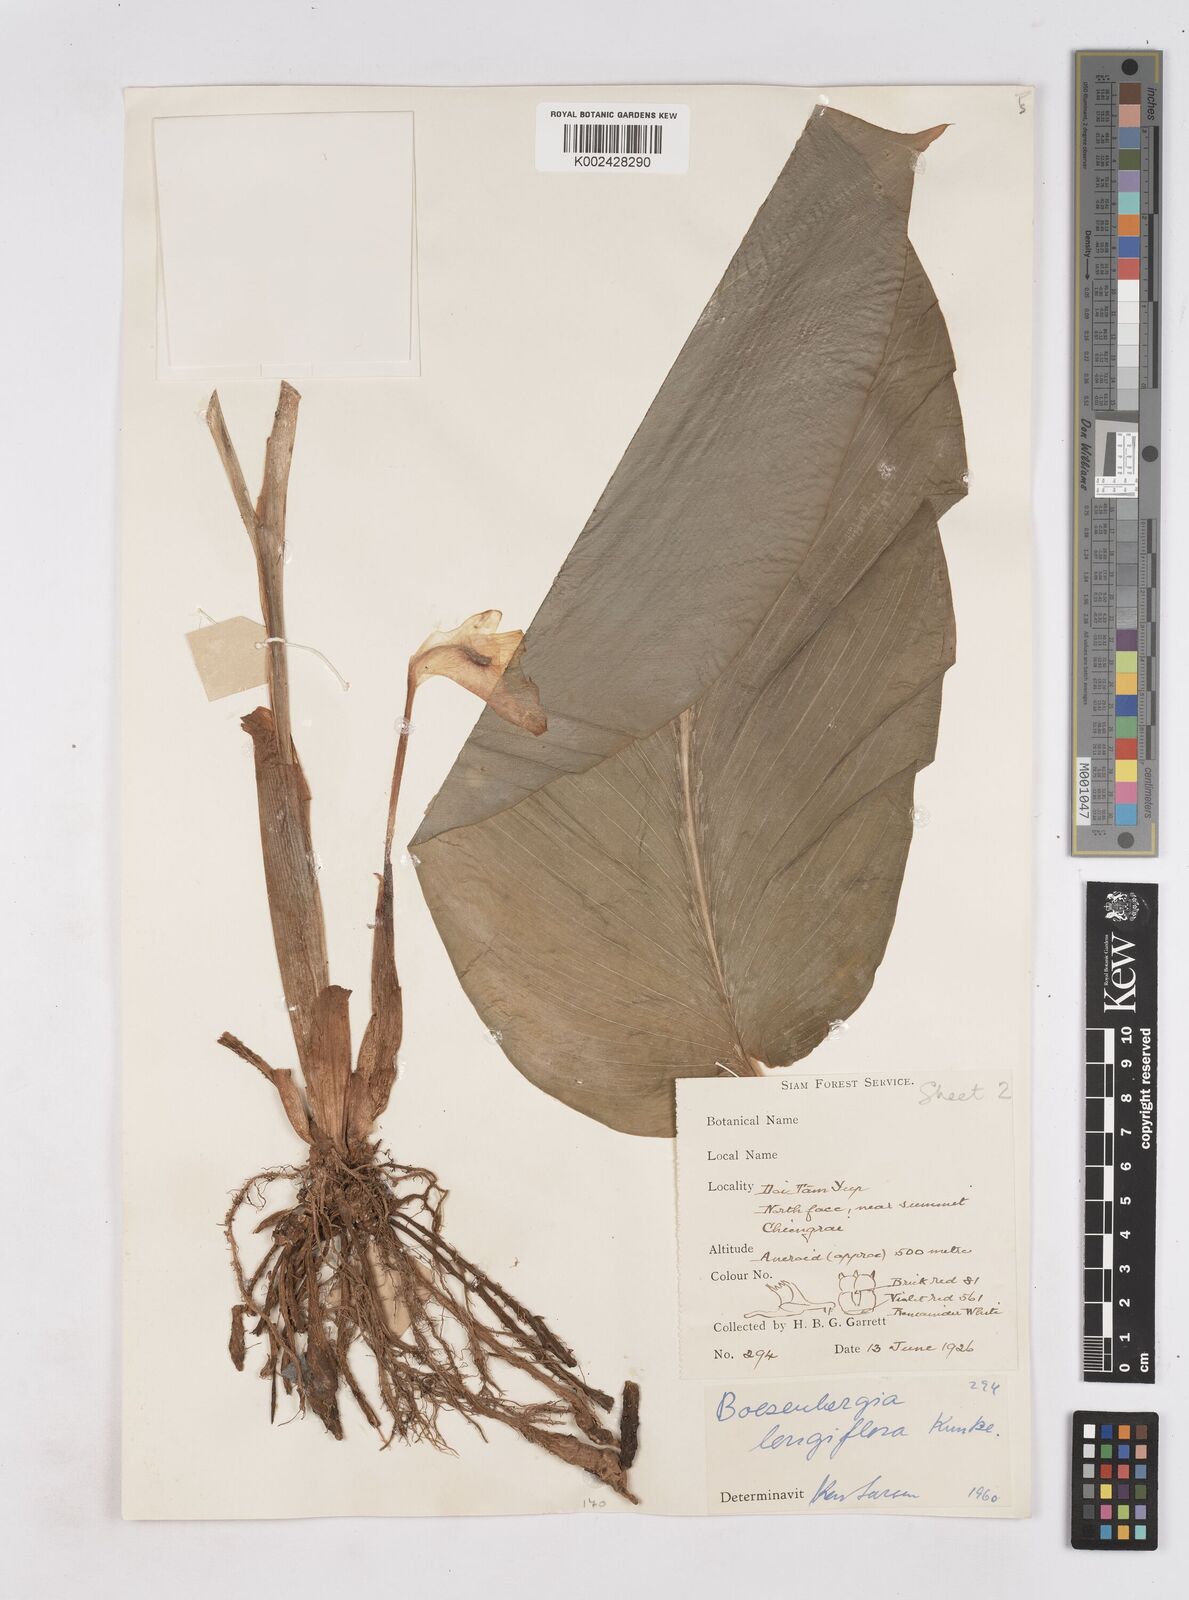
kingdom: Plantae
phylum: Tracheophyta
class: Liliopsida
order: Zingiberales
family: Zingiberaceae
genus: Boesenbergia
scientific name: Boesenbergia longiflora
